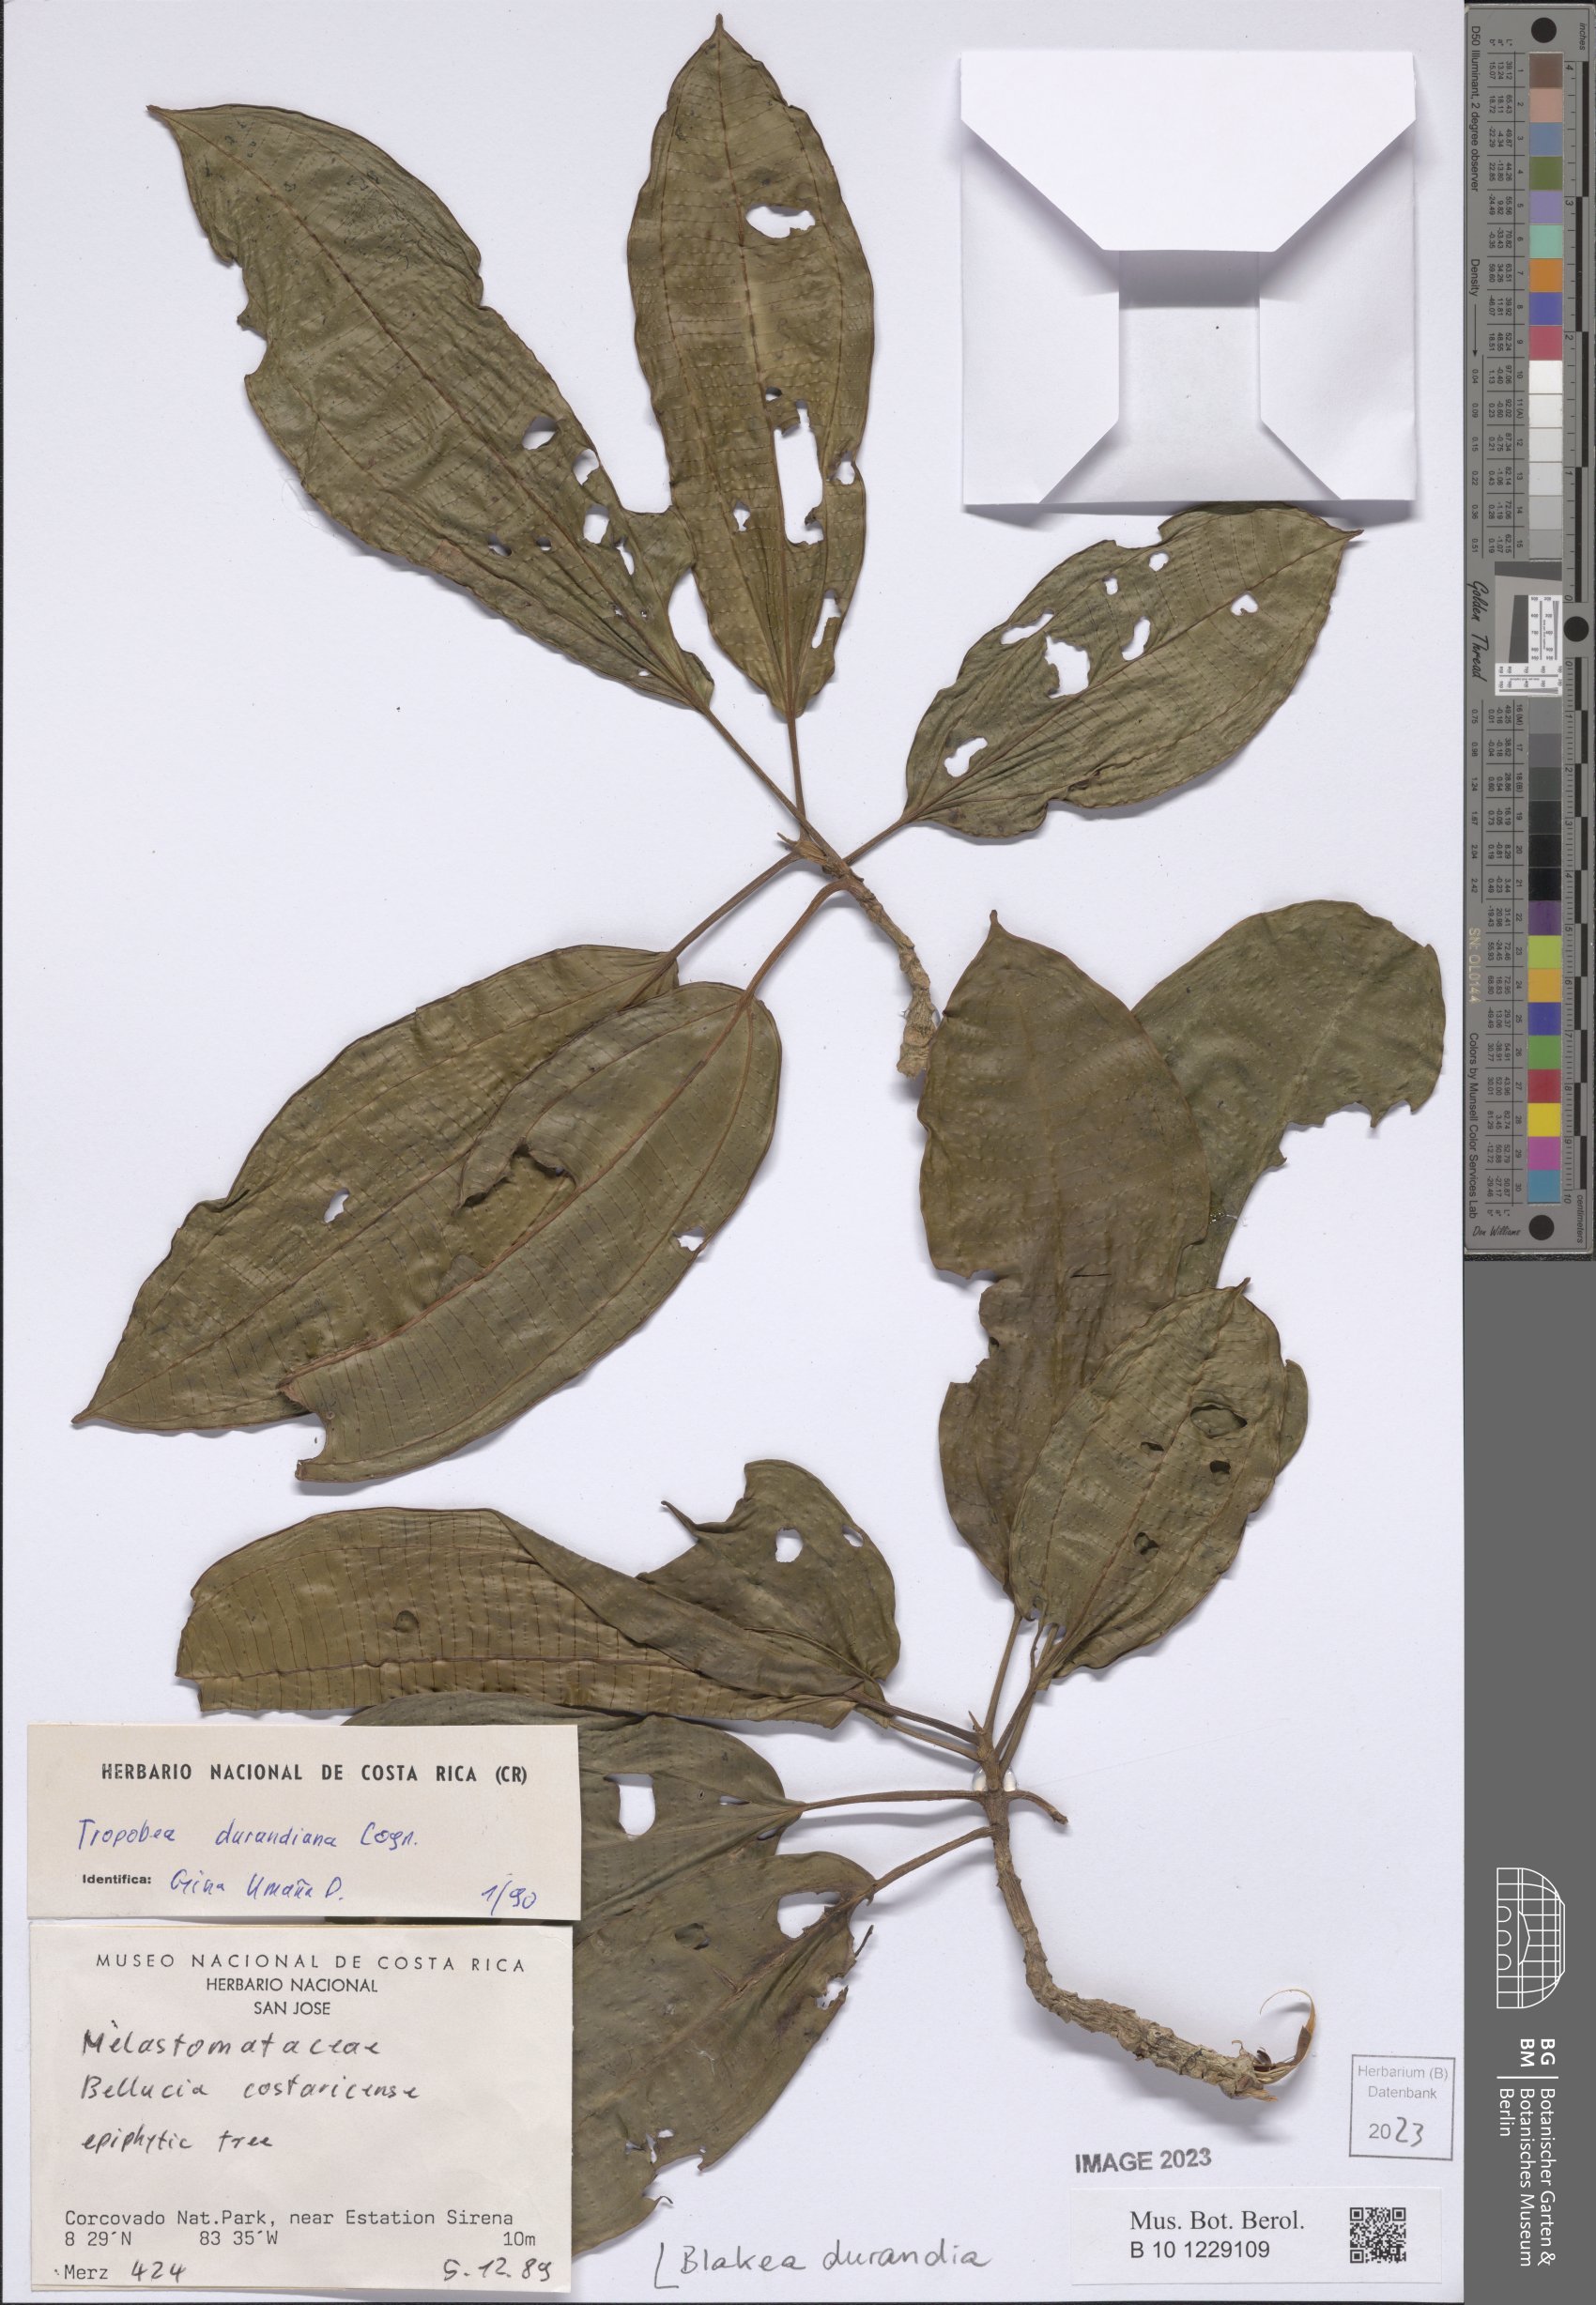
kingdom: Plantae
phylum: Tracheophyta
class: Magnoliopsida
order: Myrtales
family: Melastomataceae
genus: Blakea
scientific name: Blakea durandiana
